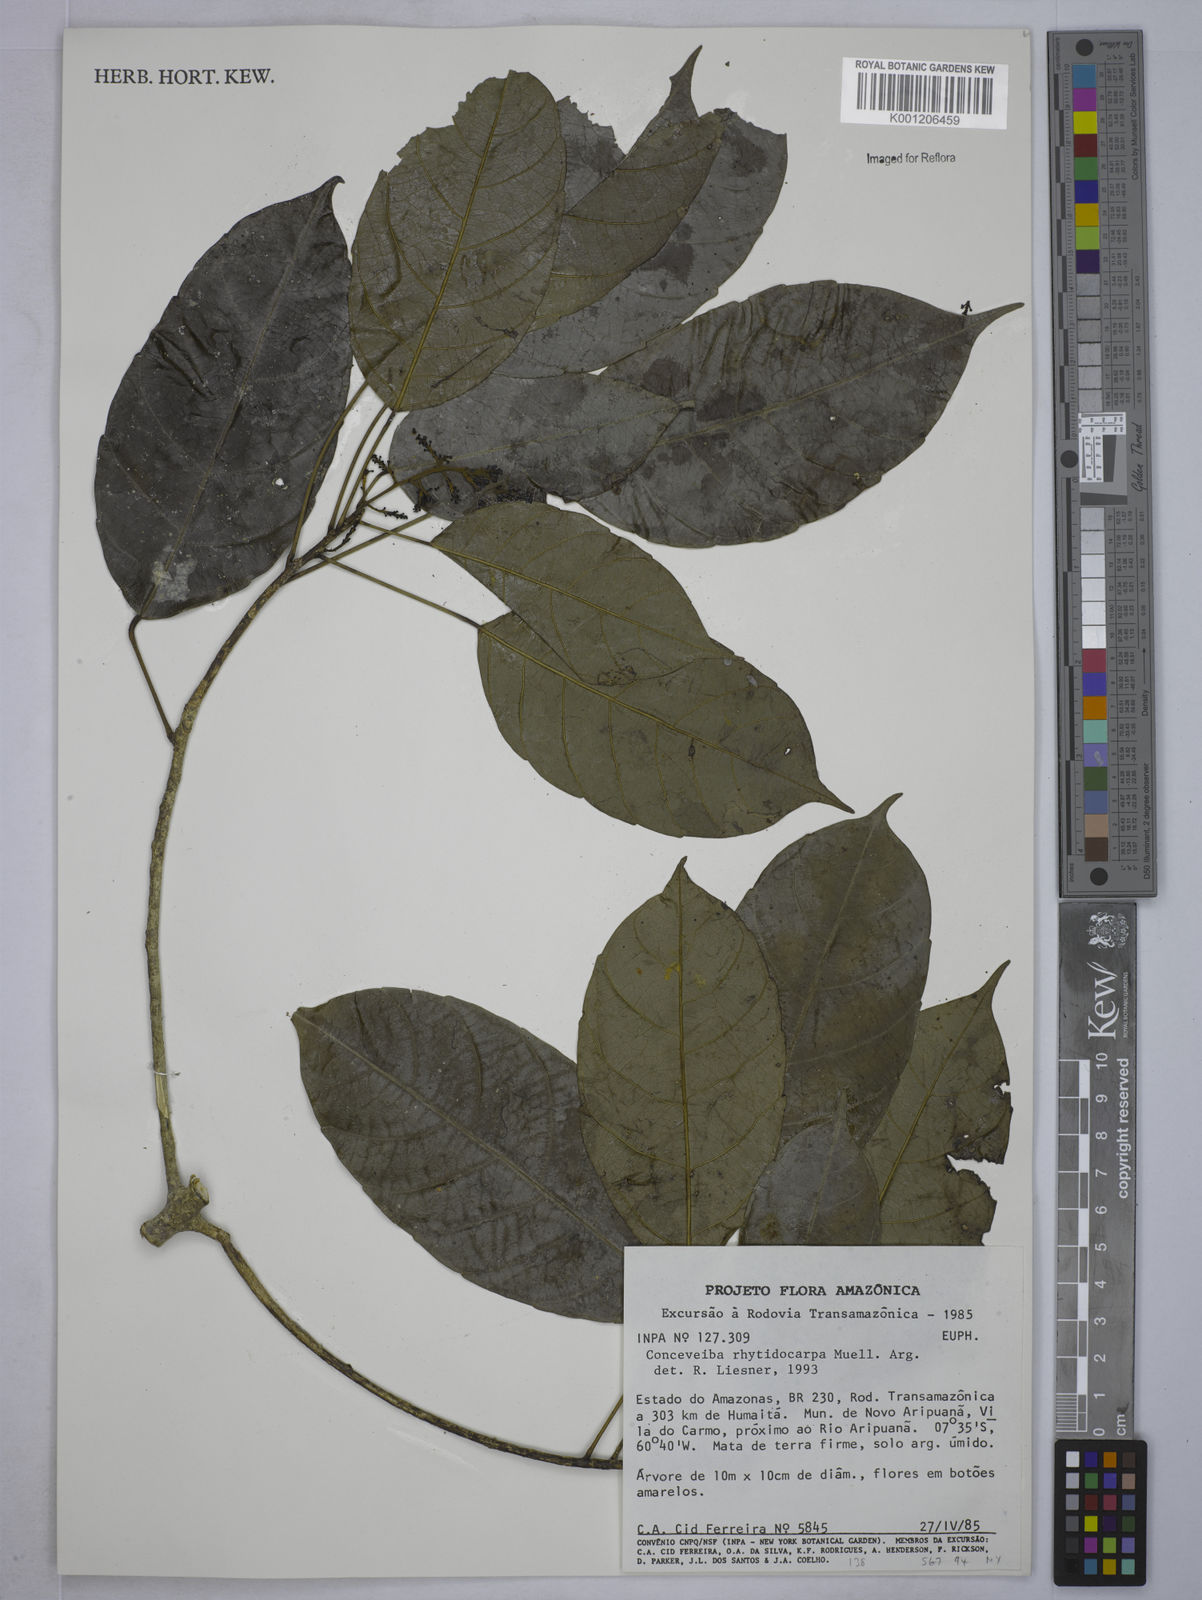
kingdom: Plantae
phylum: Tracheophyta
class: Magnoliopsida
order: Malpighiales
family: Euphorbiaceae
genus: Conceveiba
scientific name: Conceveiba
